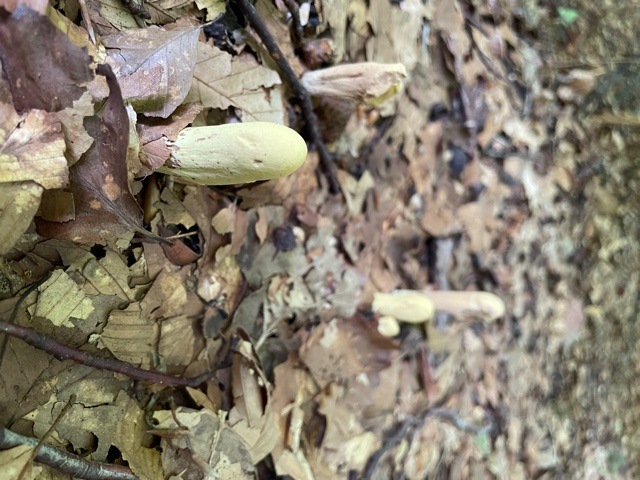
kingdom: Fungi
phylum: Basidiomycota
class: Agaricomycetes
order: Gomphales
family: Clavariadelphaceae
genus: Clavariadelphus
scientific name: Clavariadelphus pistillaris
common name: herkules-kæmpekølle
